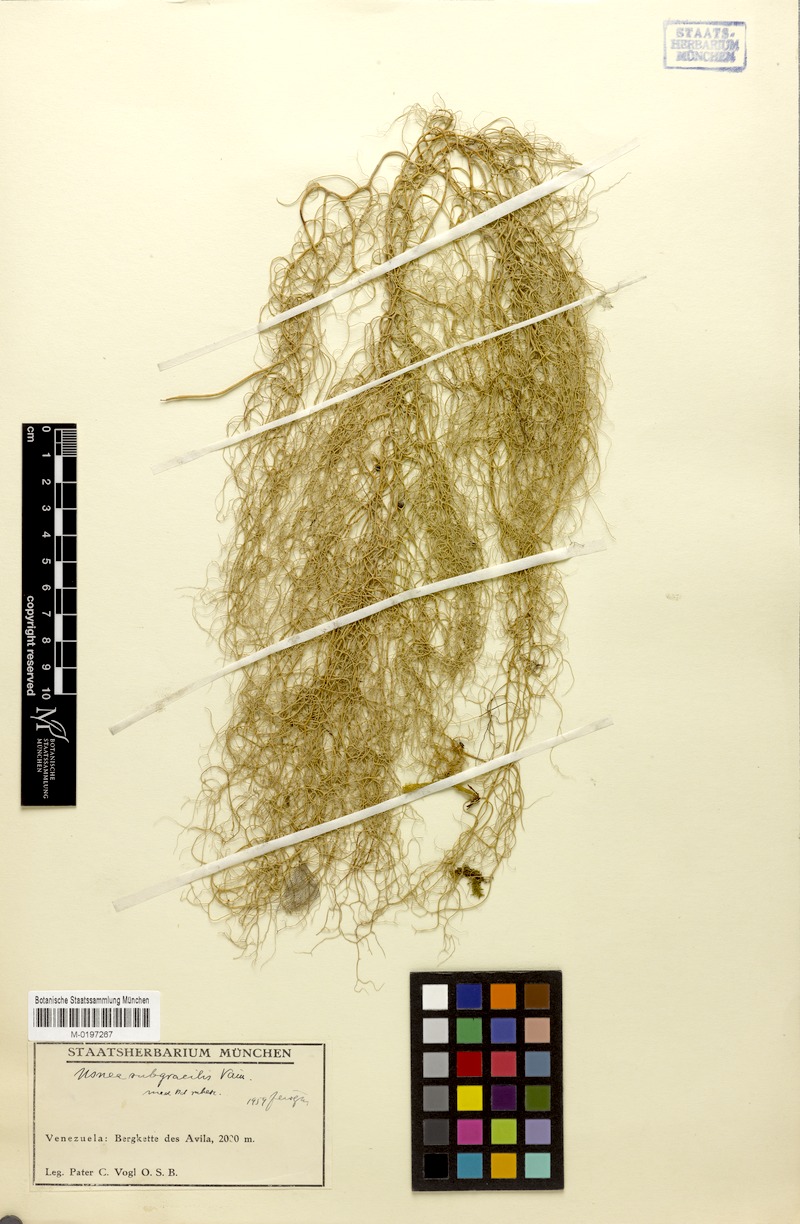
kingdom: Fungi
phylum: Ascomycota
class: Lecanoromycetes
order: Lecanorales
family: Parmeliaceae
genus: Usnea
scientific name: Usnea subgracilis
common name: Beard lichen
